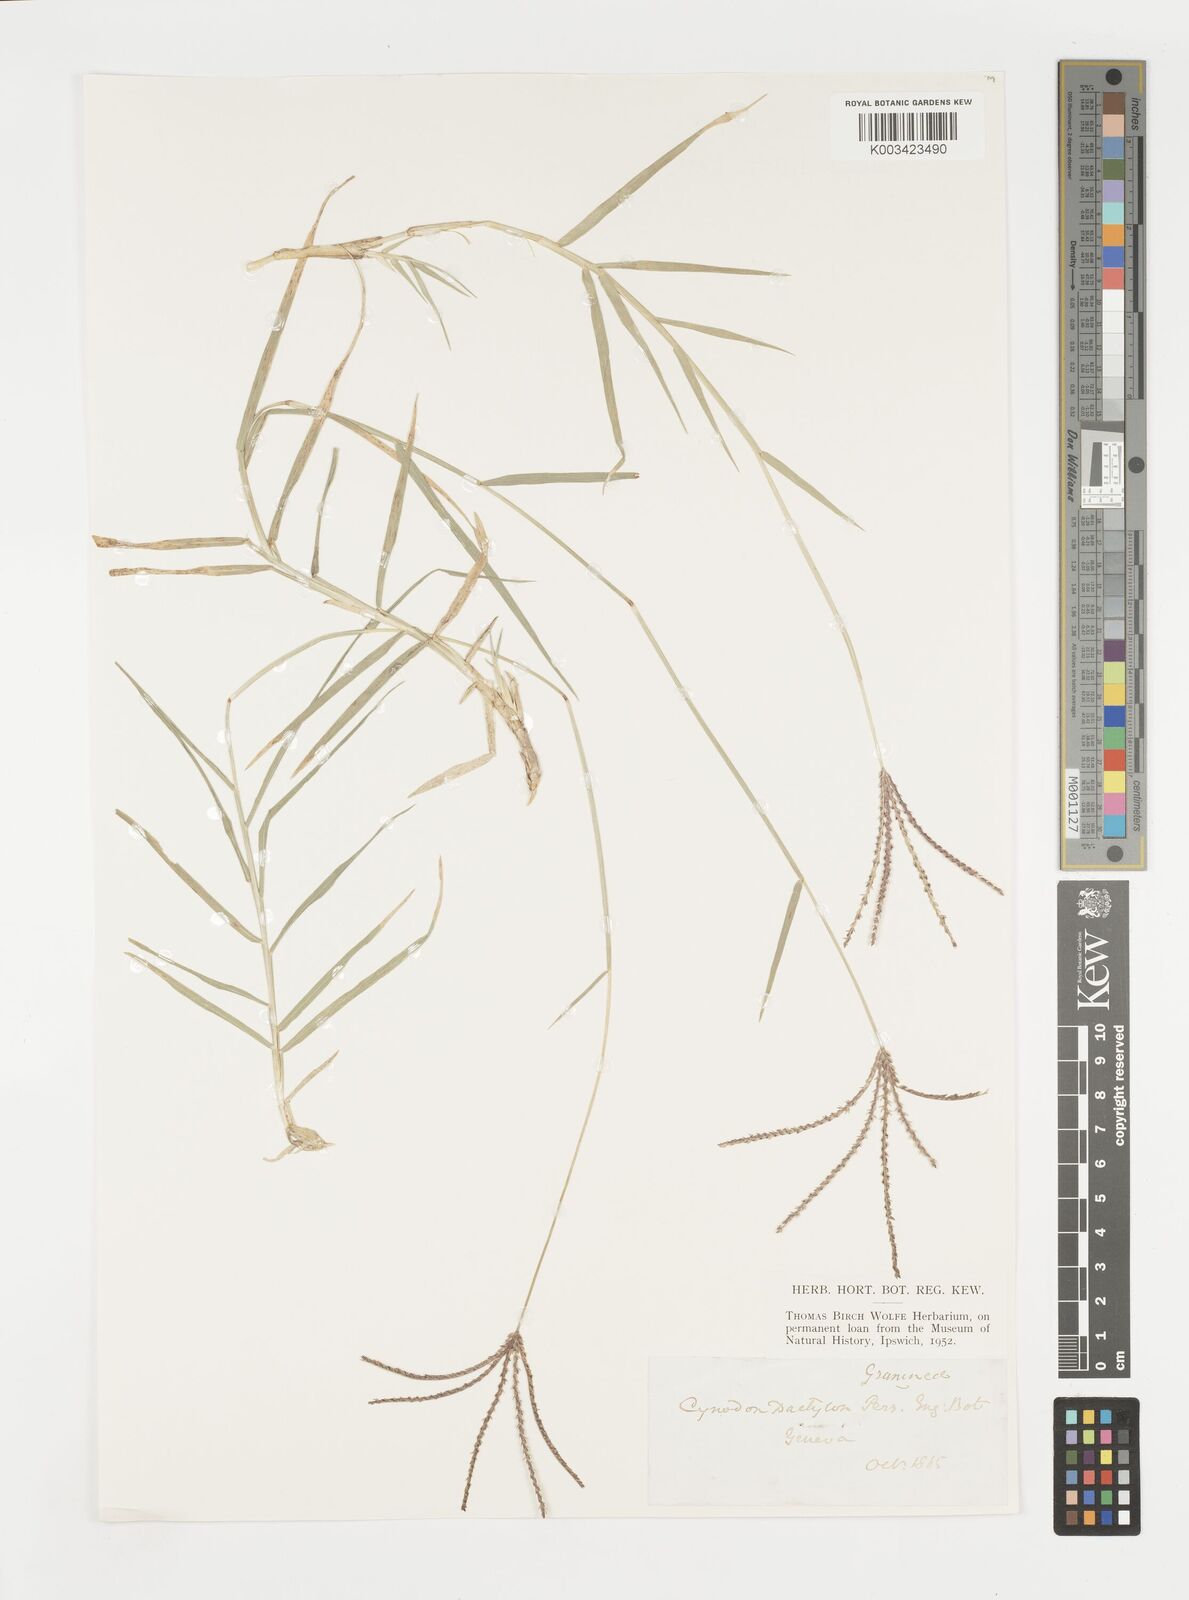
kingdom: Plantae
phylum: Tracheophyta
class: Liliopsida
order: Poales
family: Poaceae
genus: Cynodon
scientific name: Cynodon dactylon
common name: Bermuda grass
